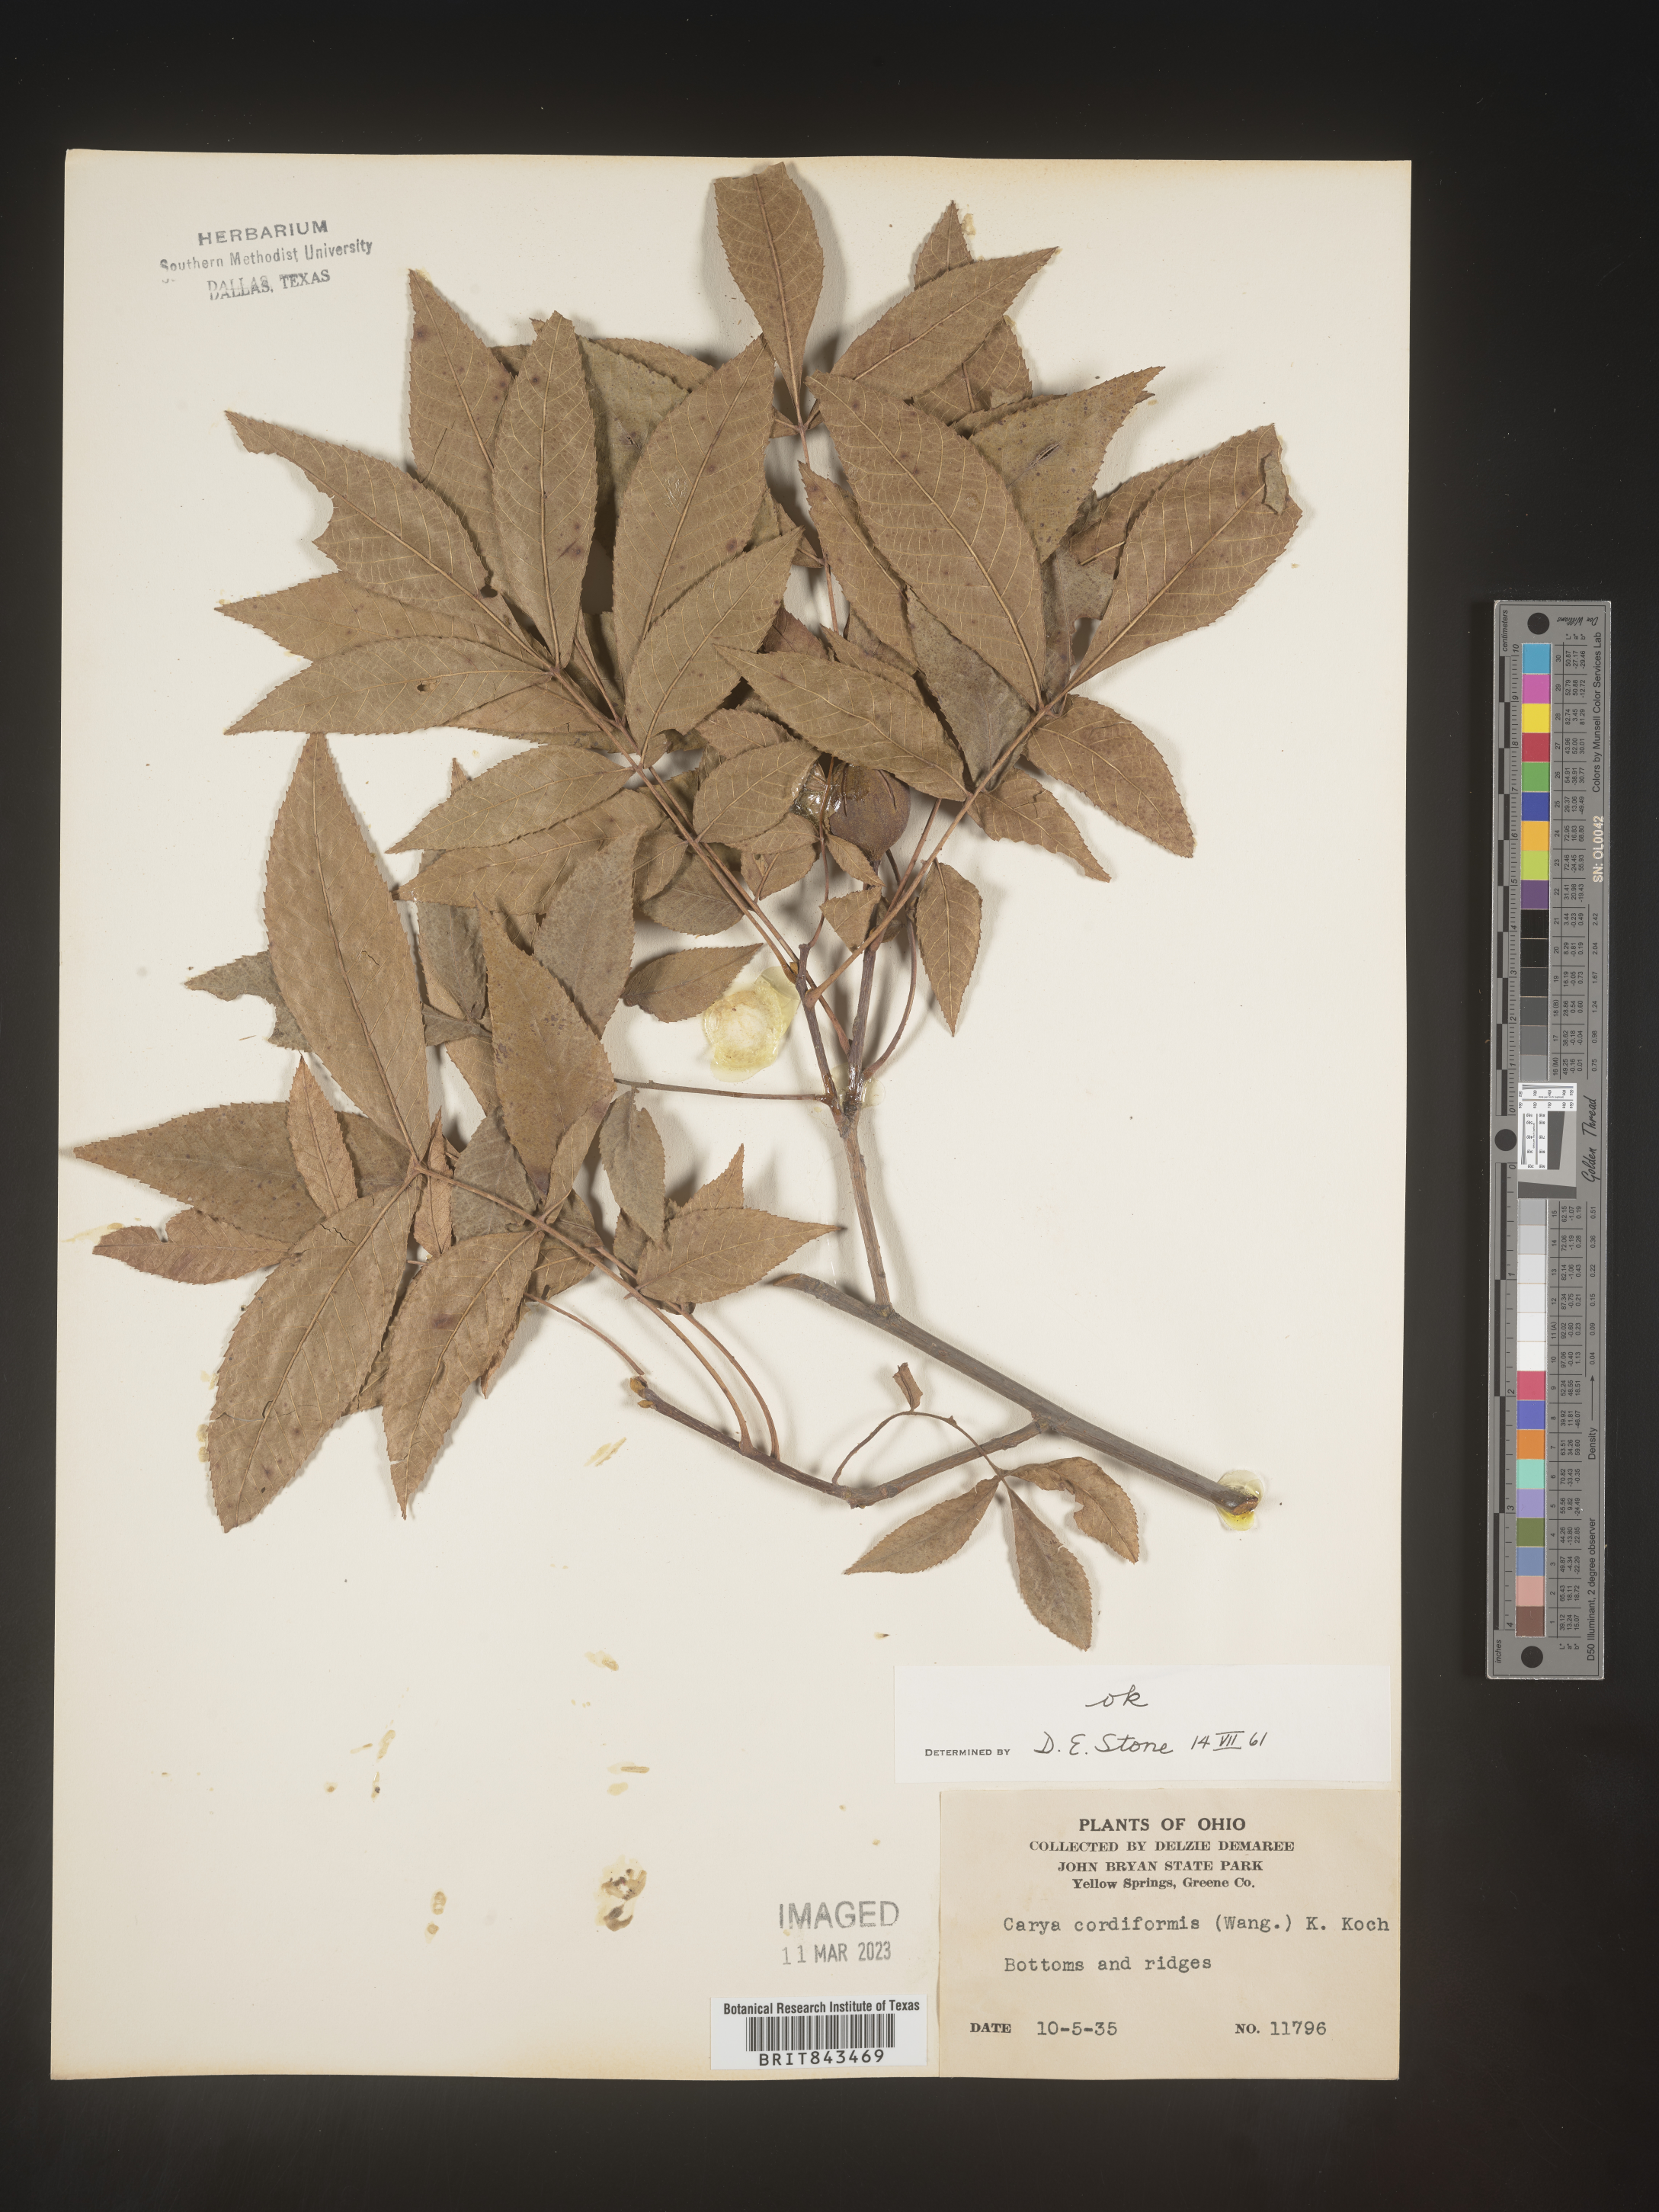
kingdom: Plantae
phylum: Tracheophyta
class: Magnoliopsida
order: Fagales
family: Juglandaceae
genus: Carya
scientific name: Carya cordiformis
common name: Bitternut hickory
